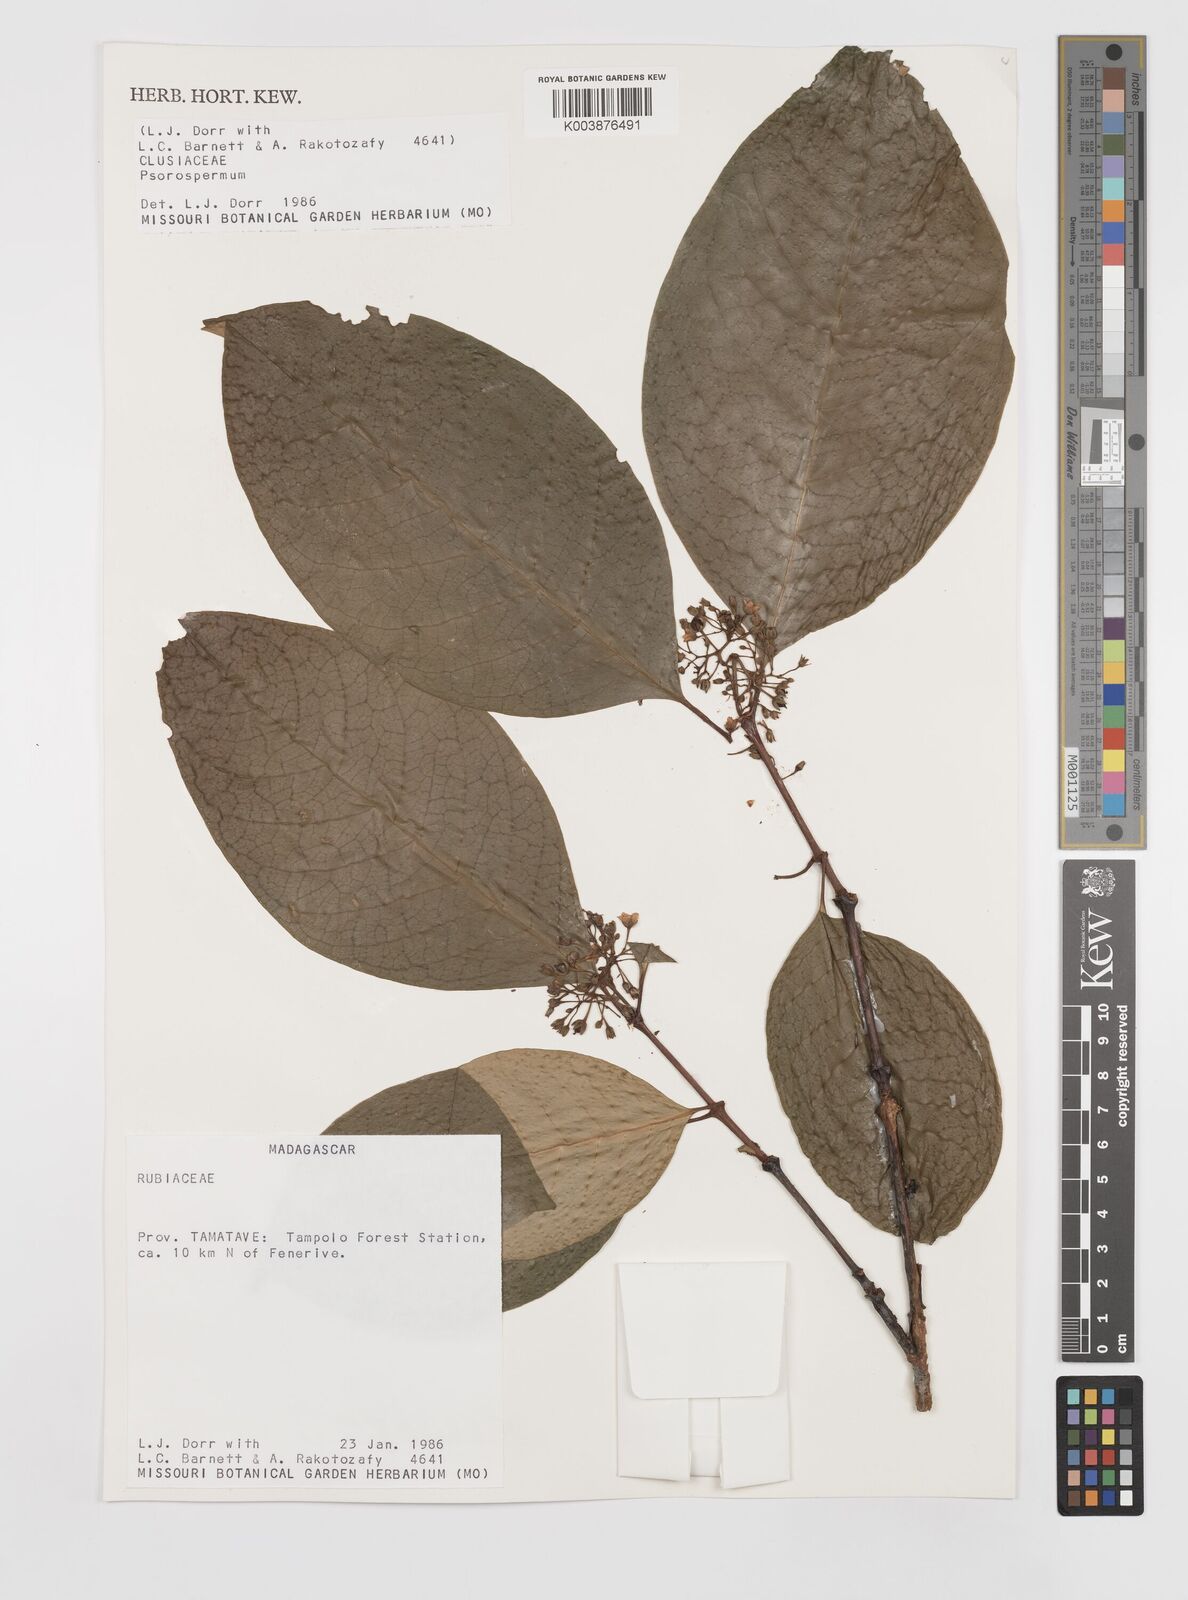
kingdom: Plantae
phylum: Tracheophyta
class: Magnoliopsida
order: Malpighiales
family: Hypericaceae
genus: Psorospermum
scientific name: Psorospermum
